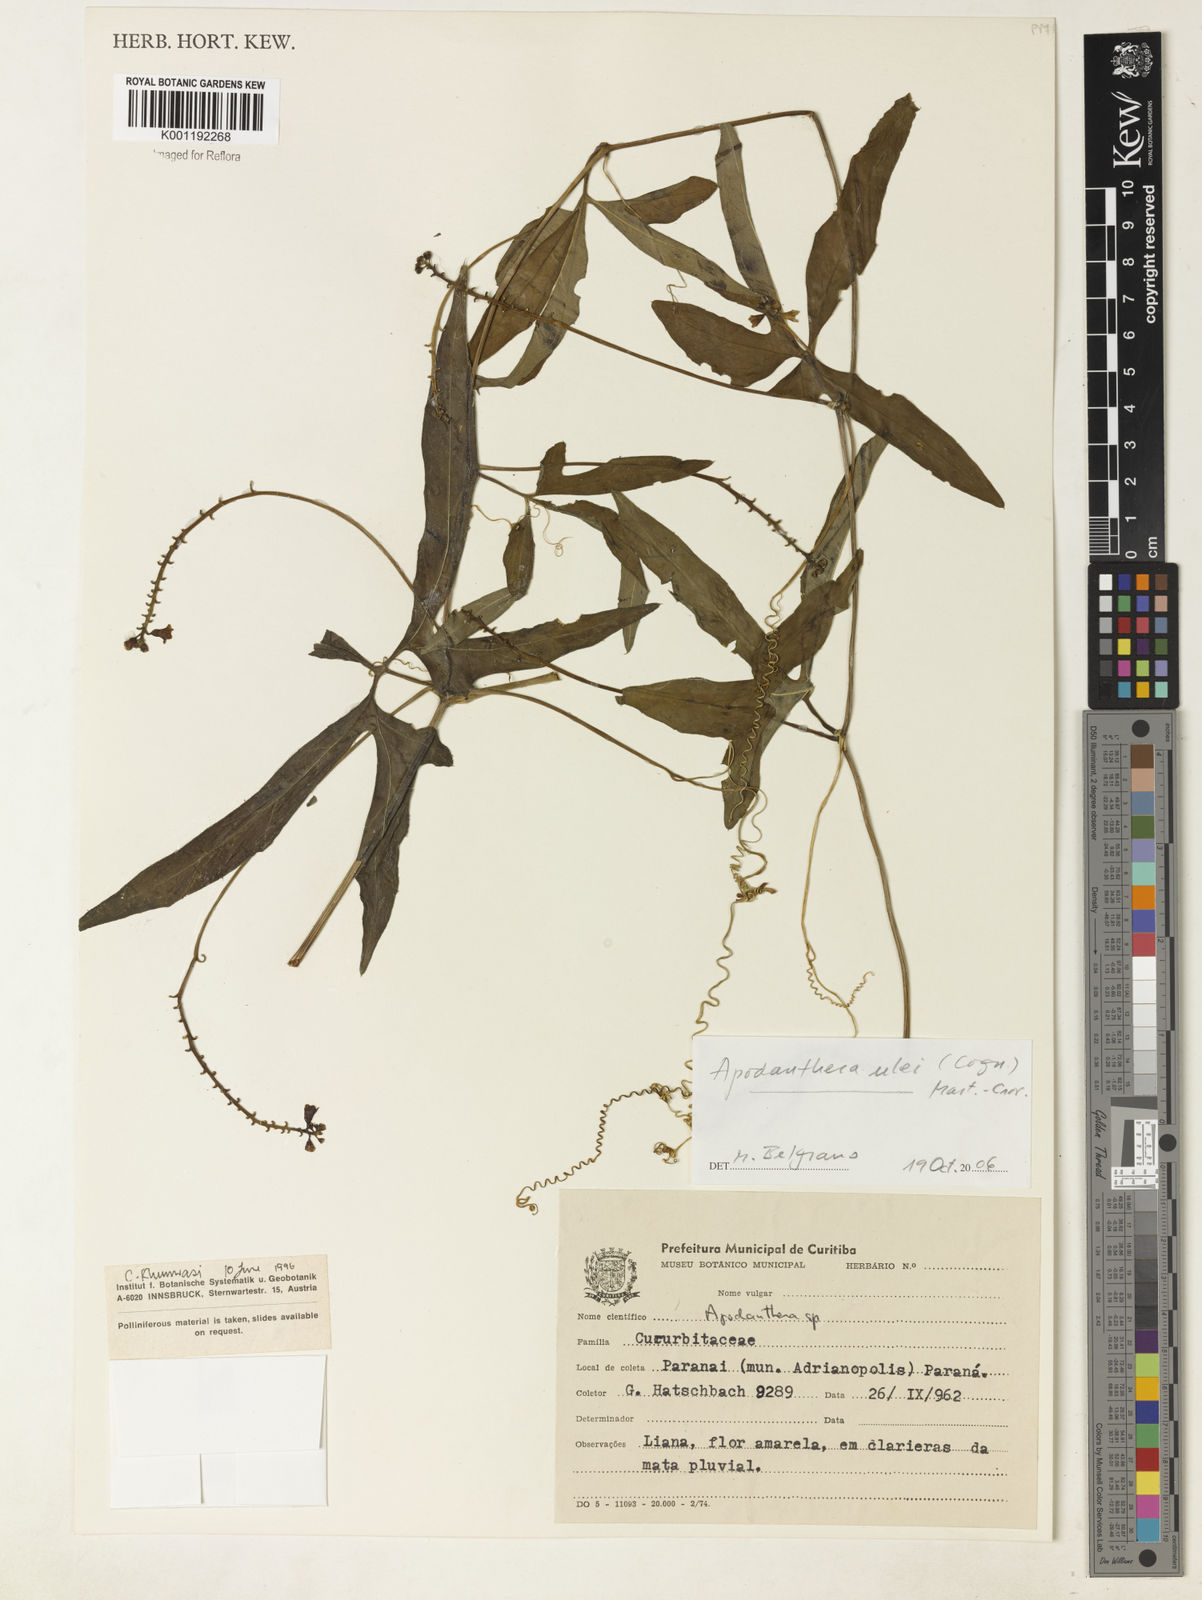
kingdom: Plantae
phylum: Tracheophyta
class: Magnoliopsida
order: Cucurbitales
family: Cucurbitaceae
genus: Apodanthera
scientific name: Apodanthera ulei
